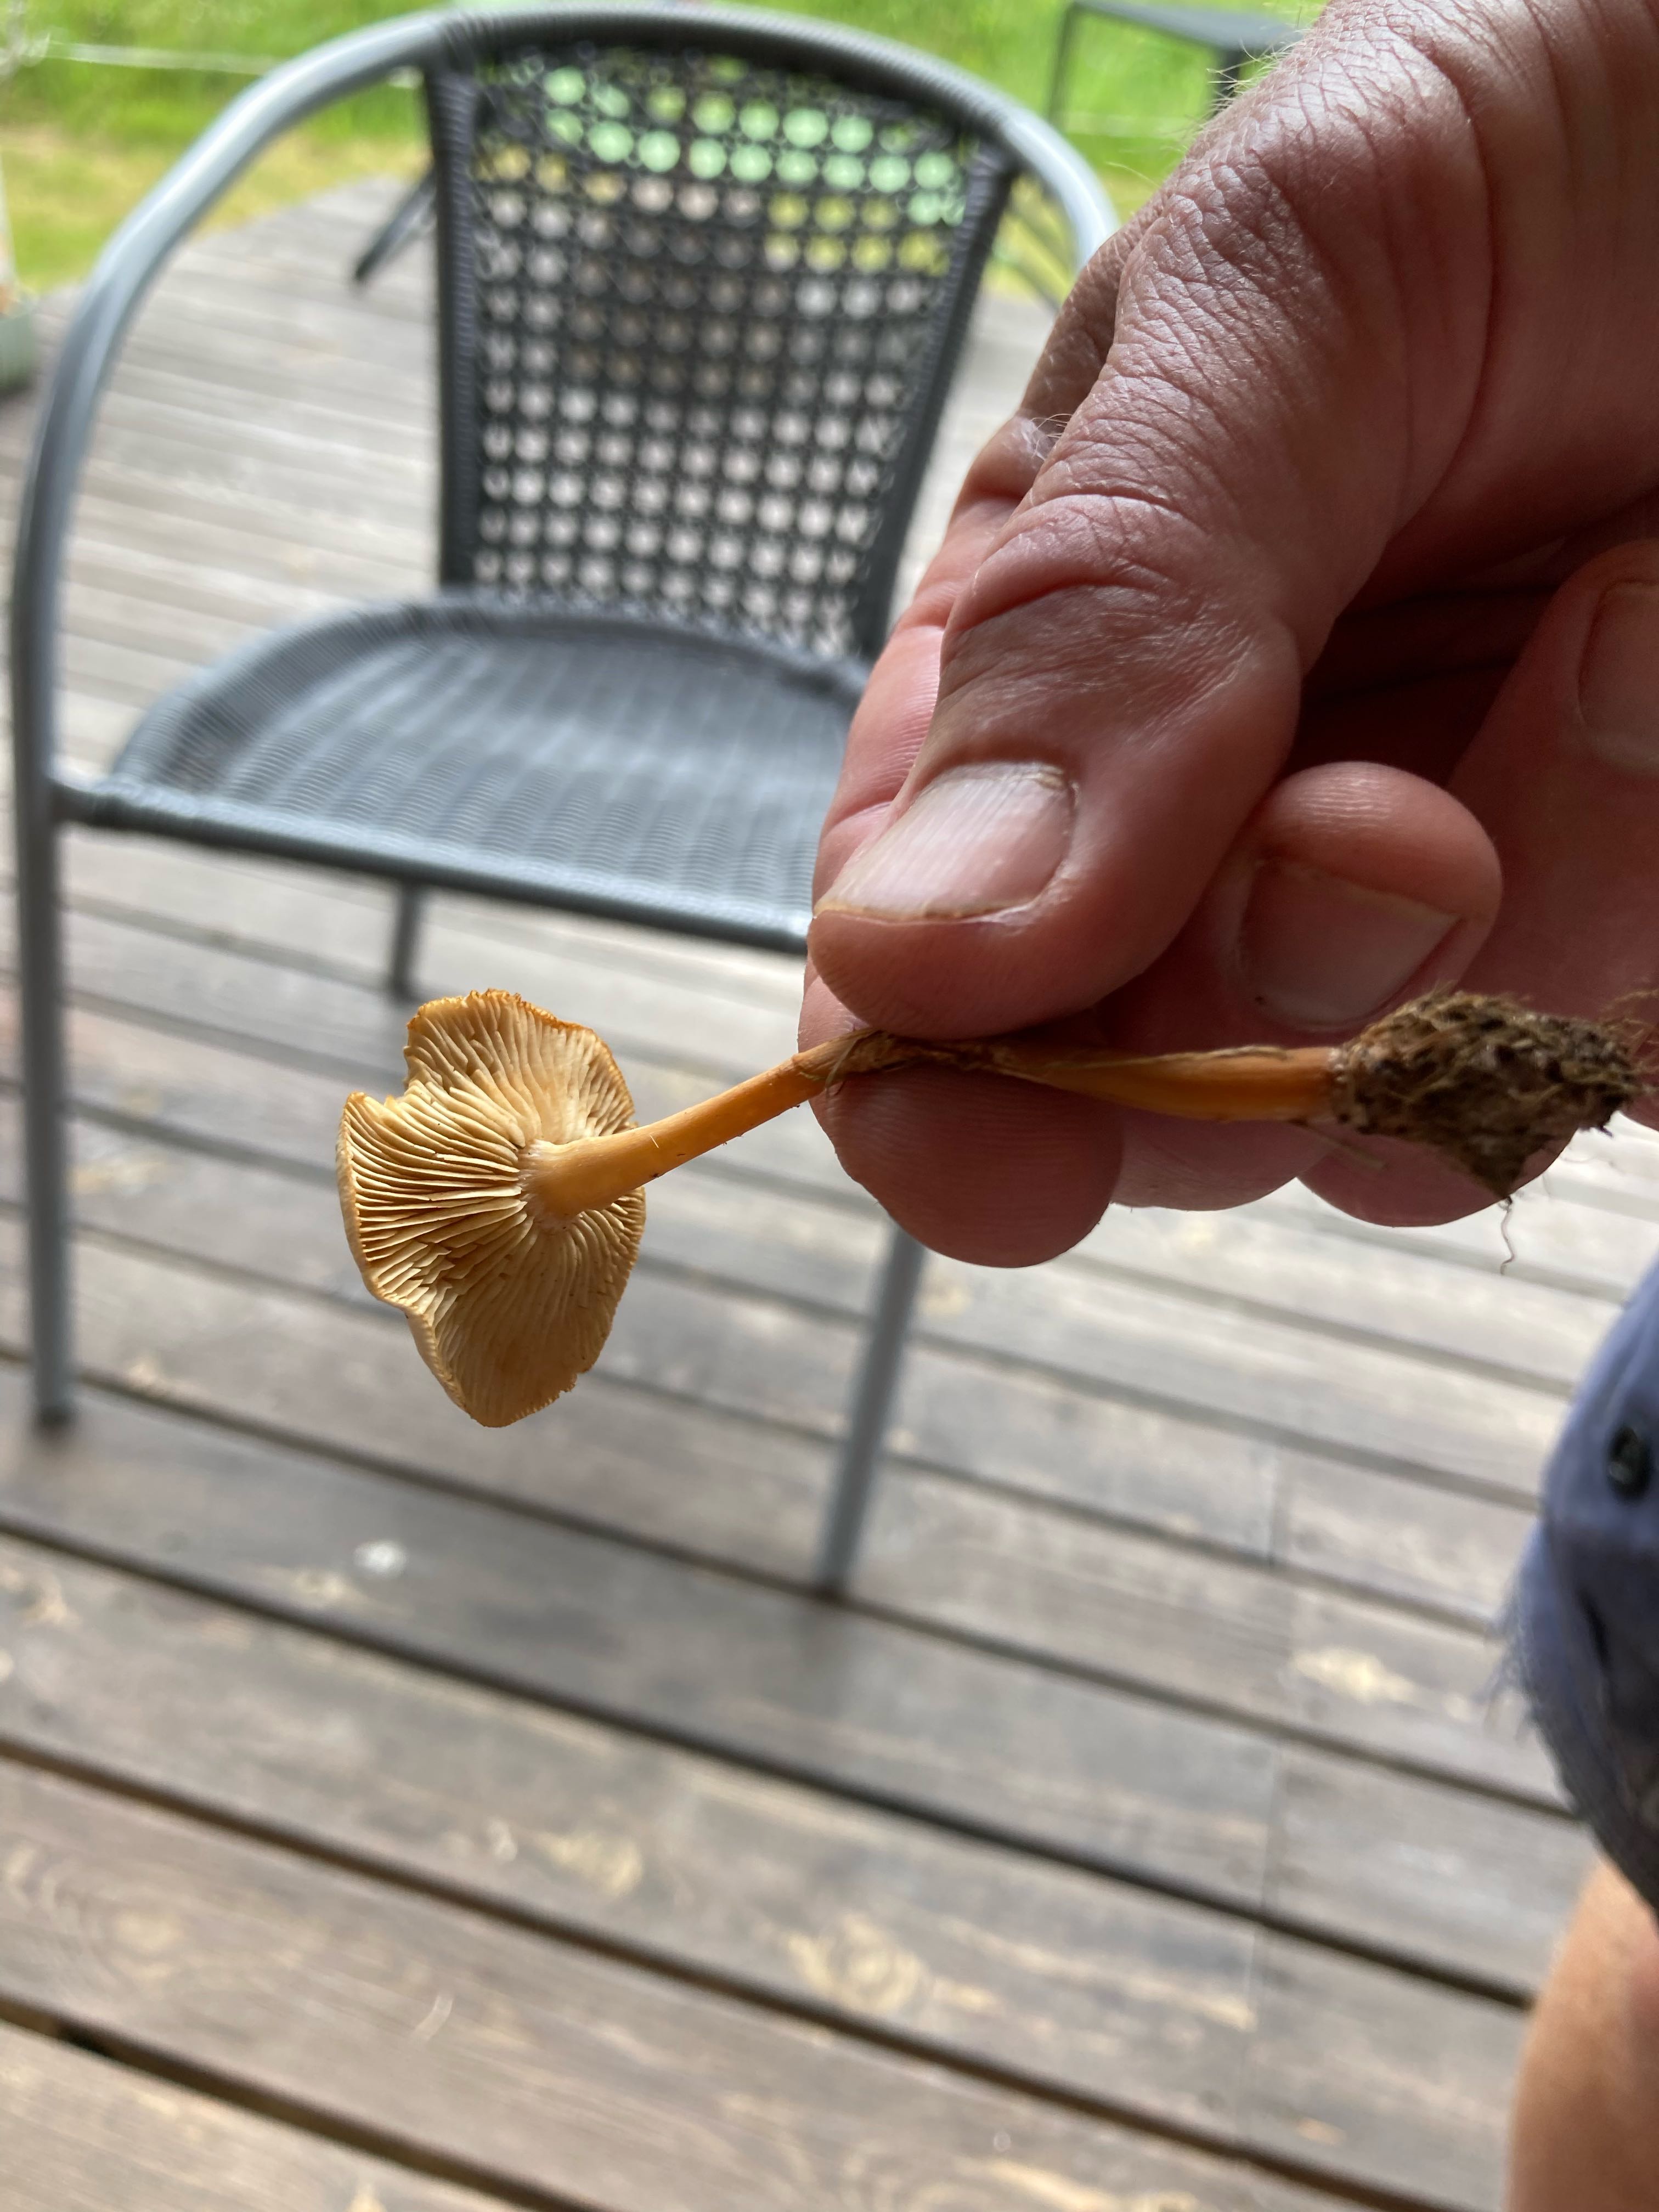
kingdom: Fungi
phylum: Basidiomycota
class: Agaricomycetes
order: Agaricales
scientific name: Agaricales
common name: champignonordenen
